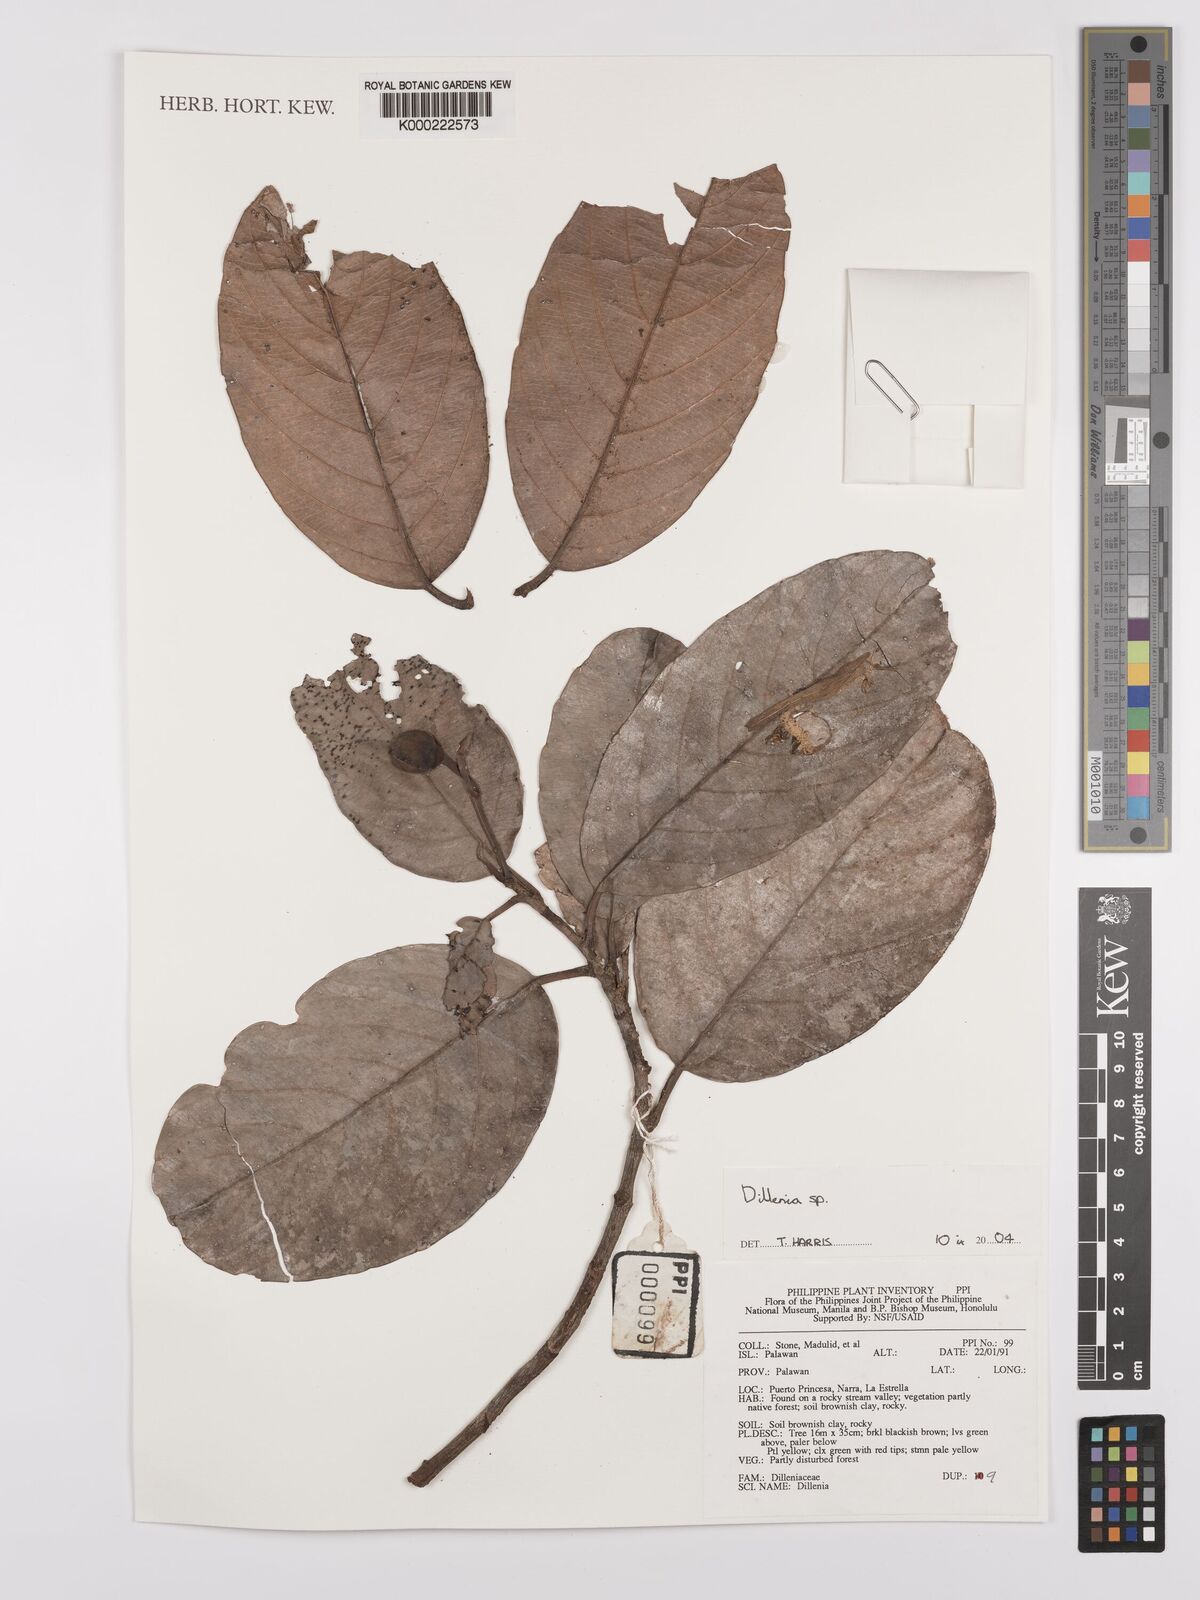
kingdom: Plantae
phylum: Tracheophyta
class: Magnoliopsida
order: Dilleniales
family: Dilleniaceae
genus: Dillenia
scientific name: Dillenia
